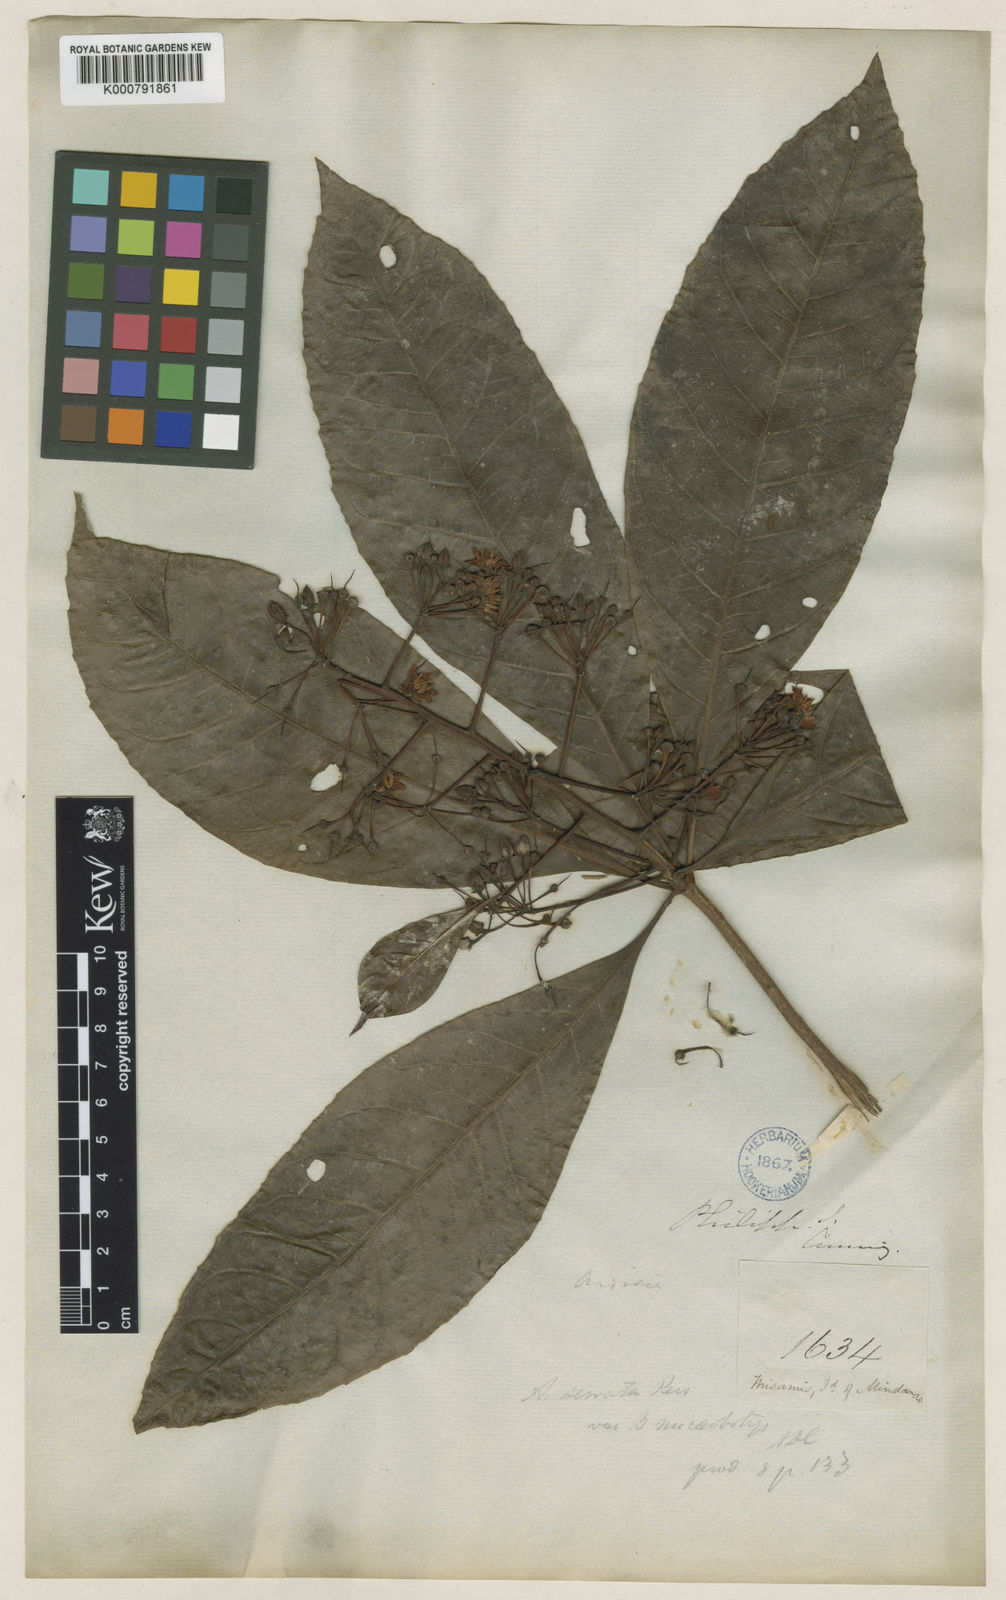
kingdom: Plantae
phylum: Tracheophyta
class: Magnoliopsida
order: Ericales
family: Primulaceae
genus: Ardisia
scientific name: Ardisia serrata
